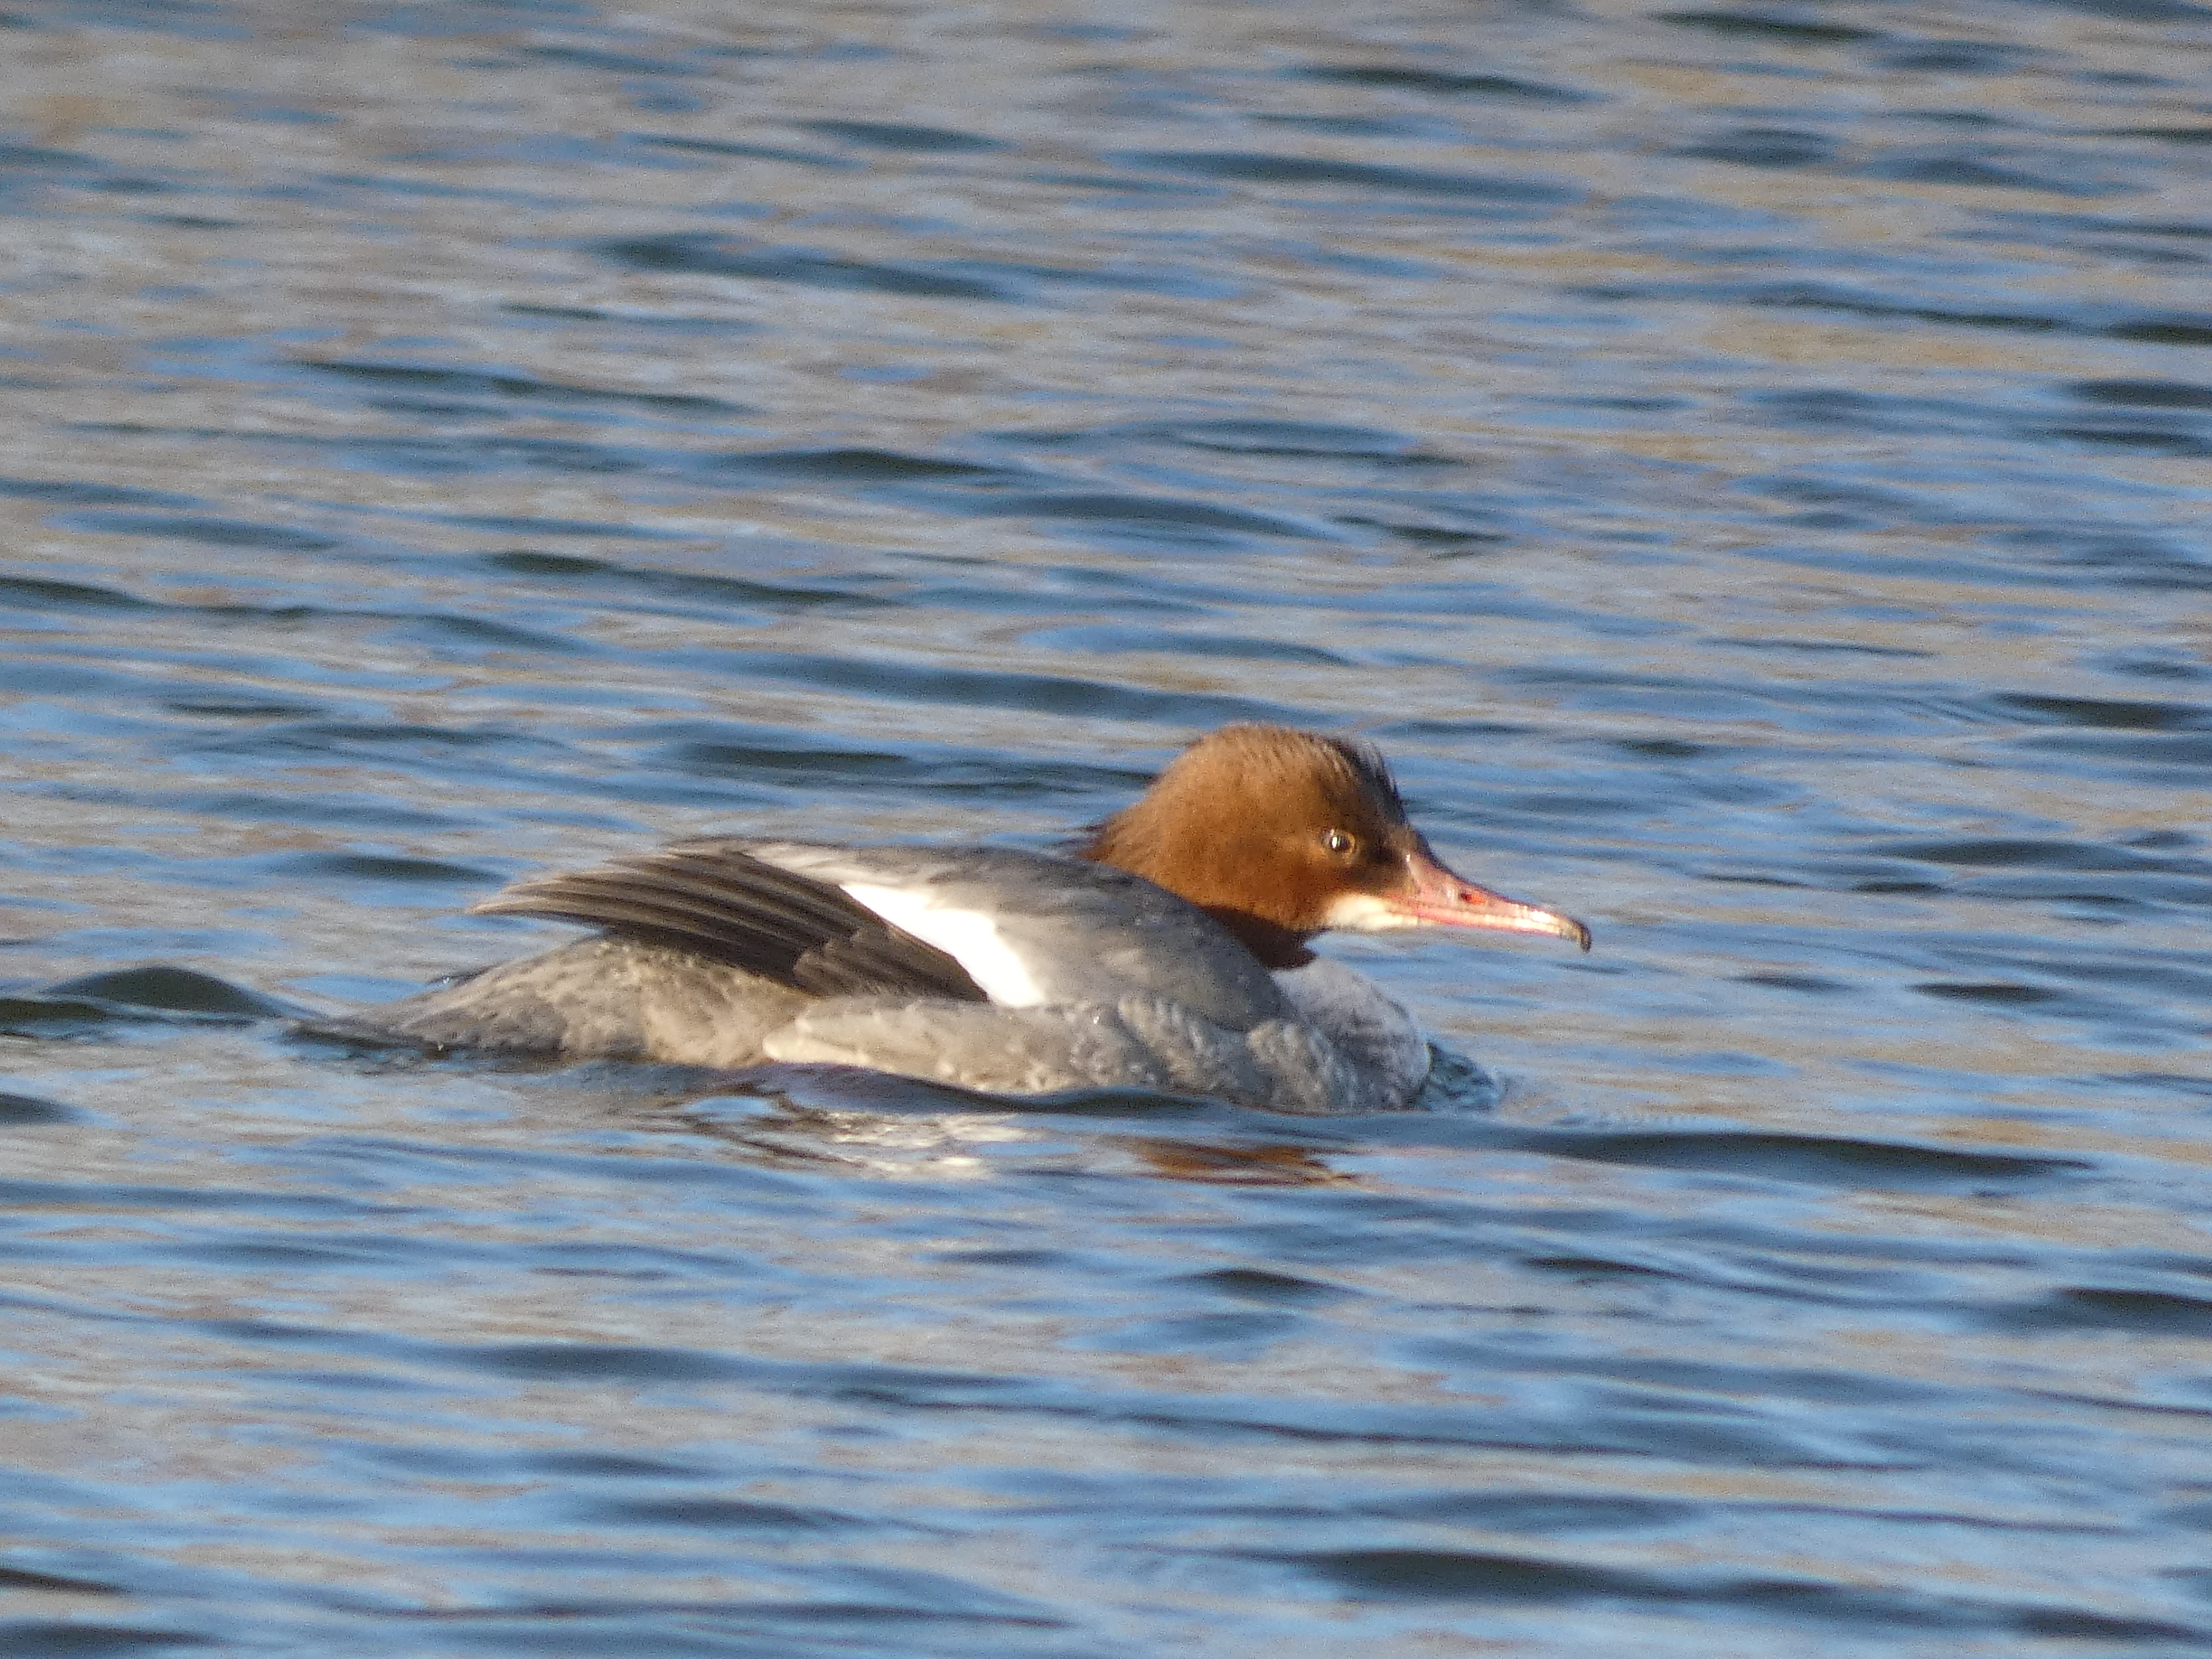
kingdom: Animalia
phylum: Chordata
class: Aves
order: Anseriformes
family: Anatidae
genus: Mergus
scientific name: Mergus merganser
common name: Stor skallesluger
